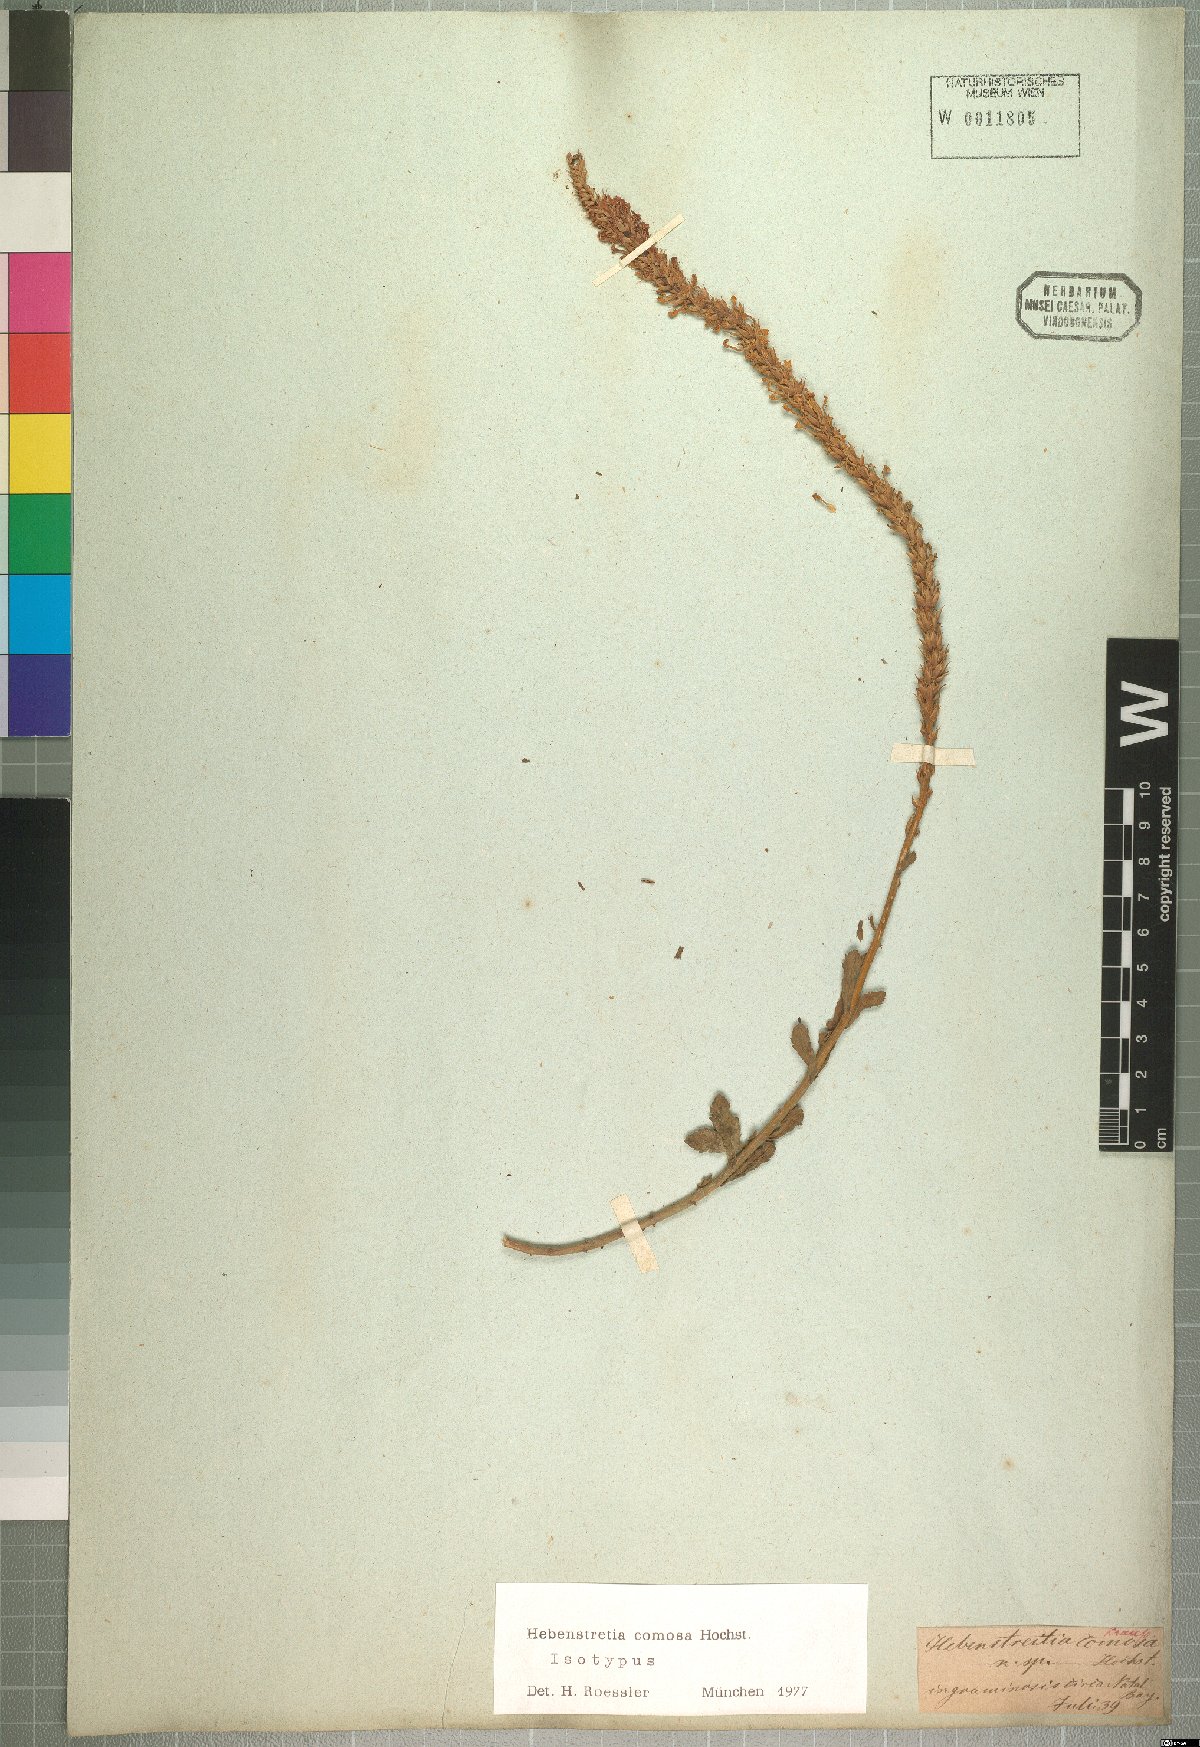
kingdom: Plantae
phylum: Tracheophyta
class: Magnoliopsida
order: Lamiales
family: Scrophulariaceae
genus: Hebenstretia
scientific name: Hebenstretia comosa
